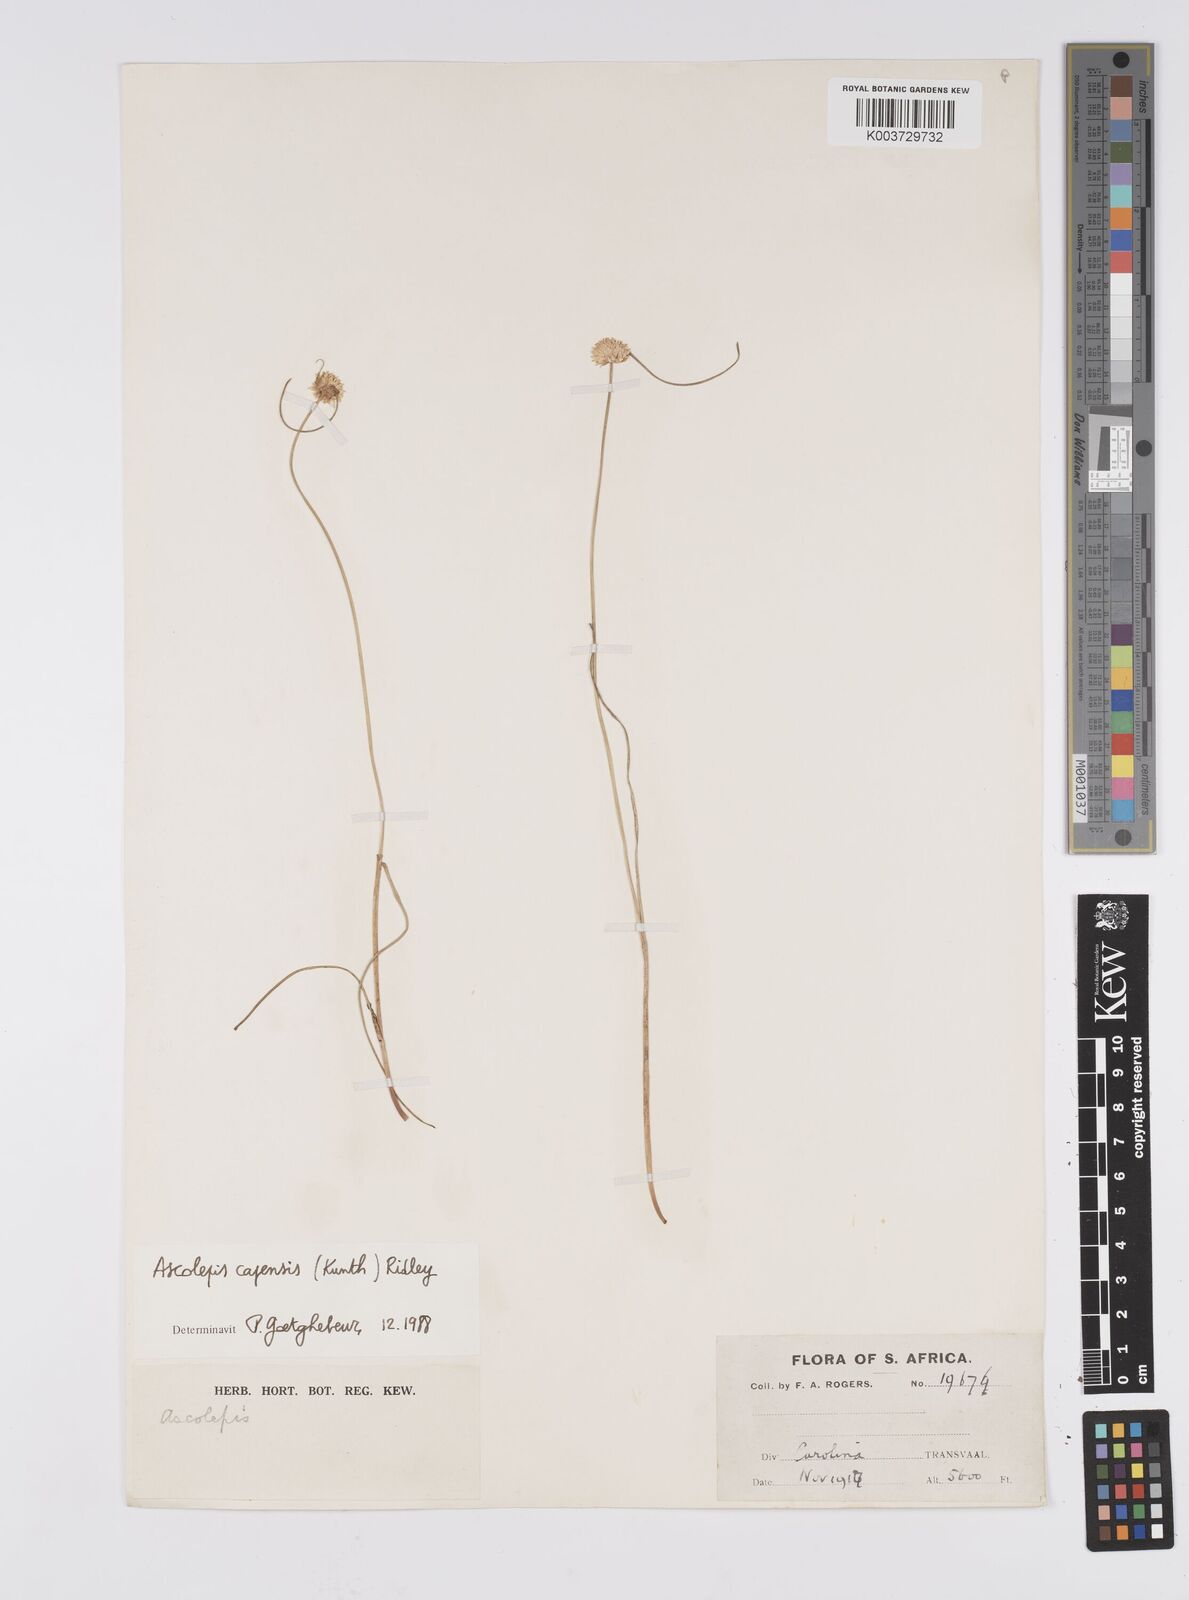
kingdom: Plantae
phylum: Tracheophyta
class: Liliopsida
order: Poales
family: Cyperaceae
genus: Cyperus
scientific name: Cyperus capensis
